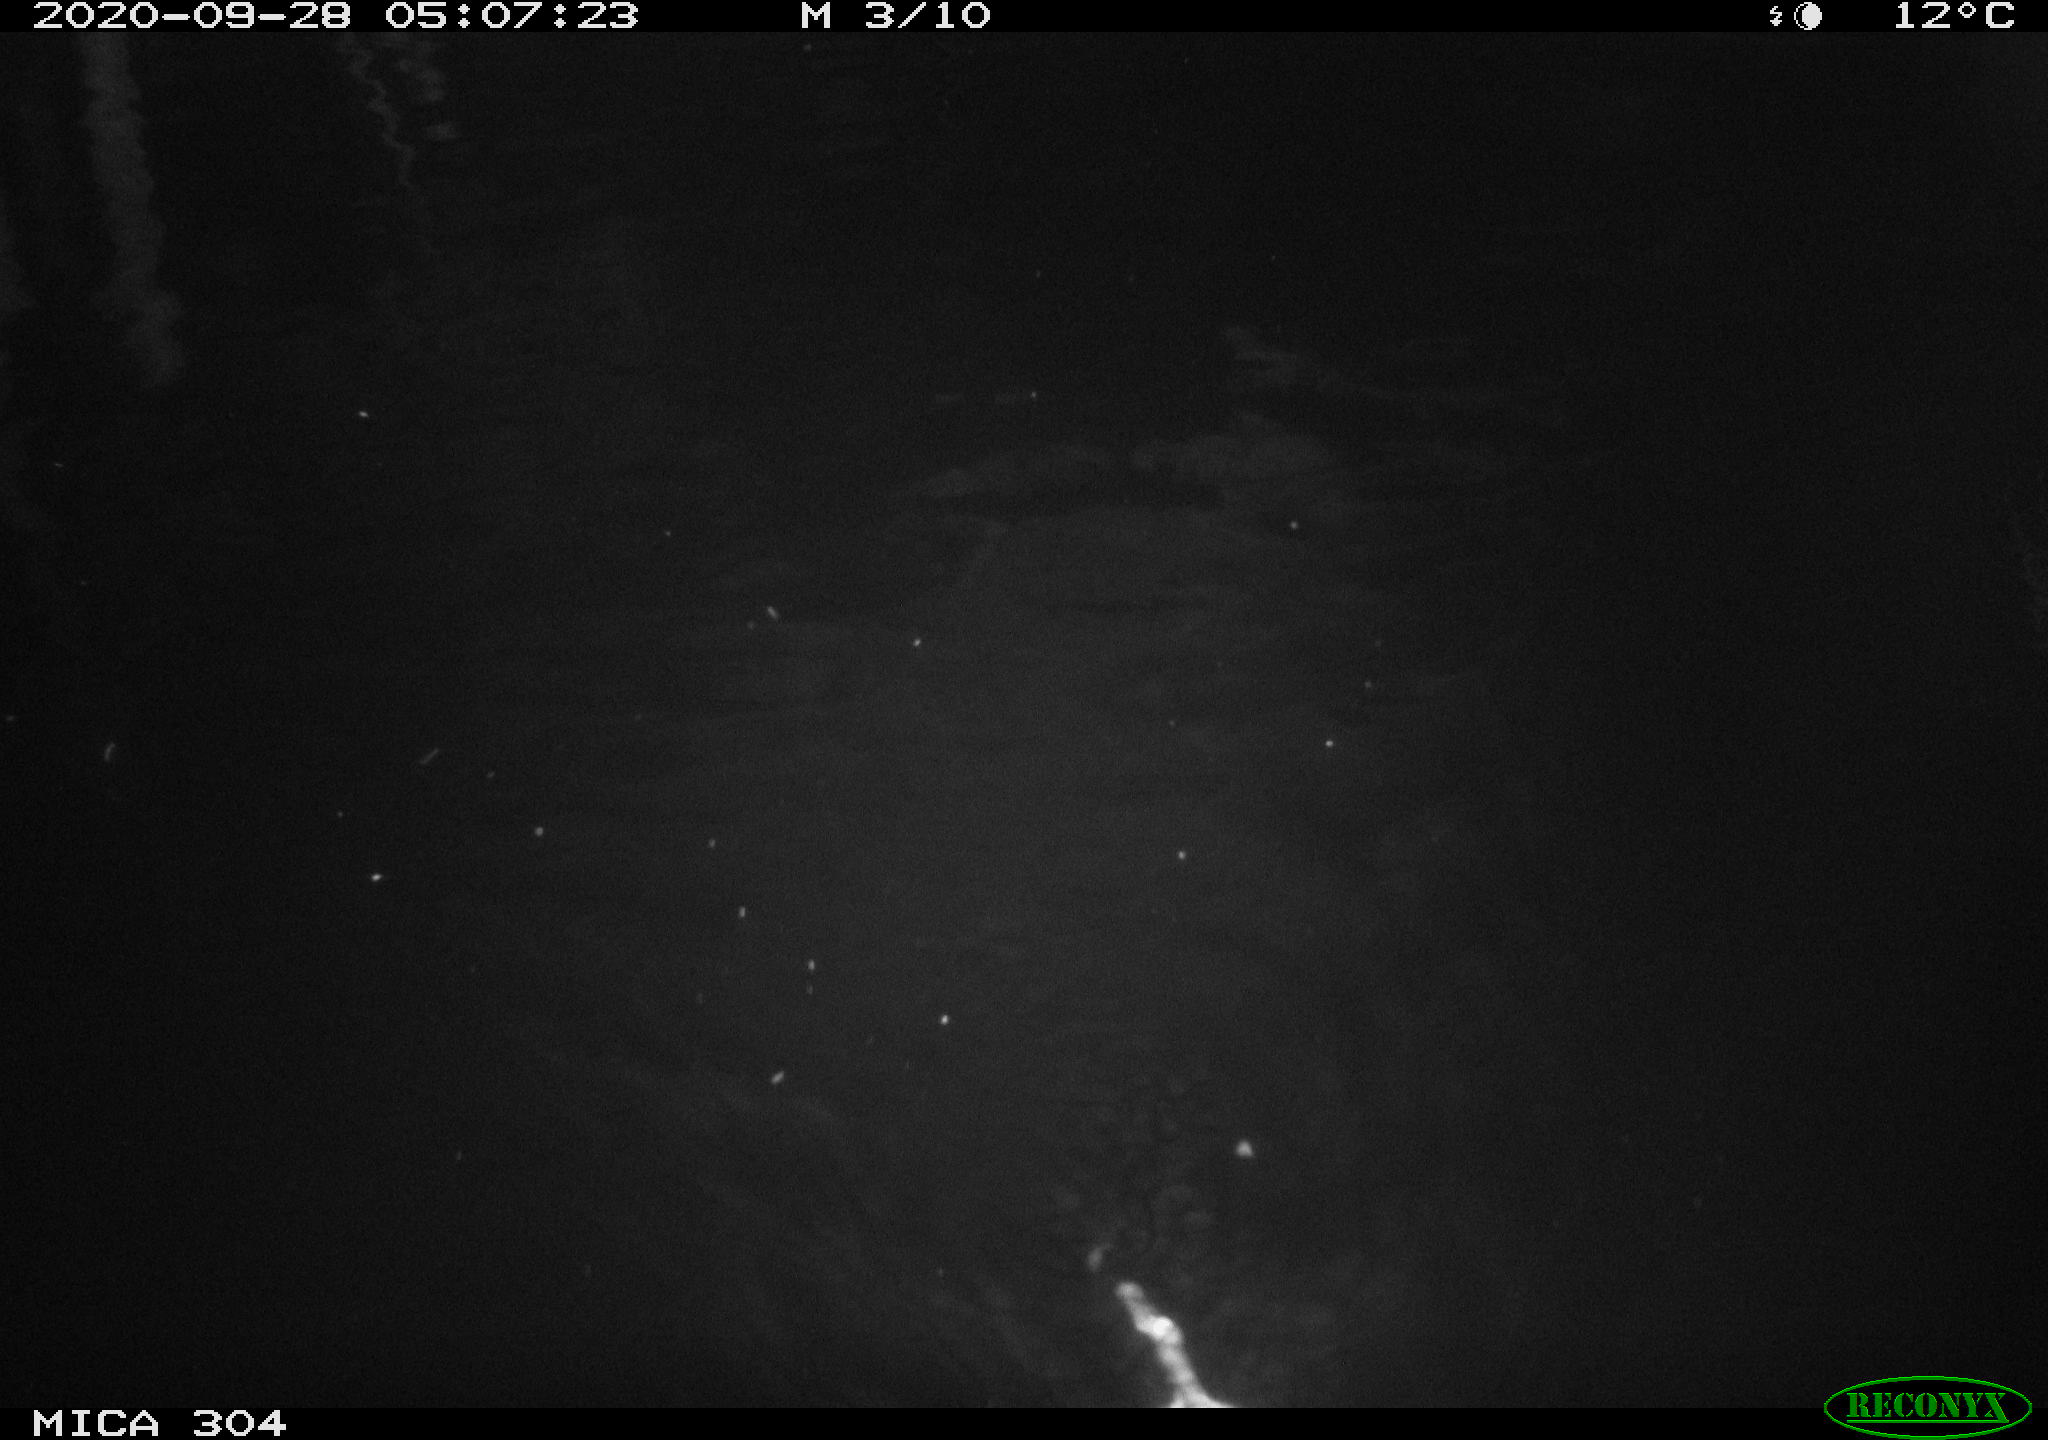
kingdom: Animalia
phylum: Chordata
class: Mammalia
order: Rodentia
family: Cricetidae
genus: Ondatra
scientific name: Ondatra zibethicus
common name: Muskrat
